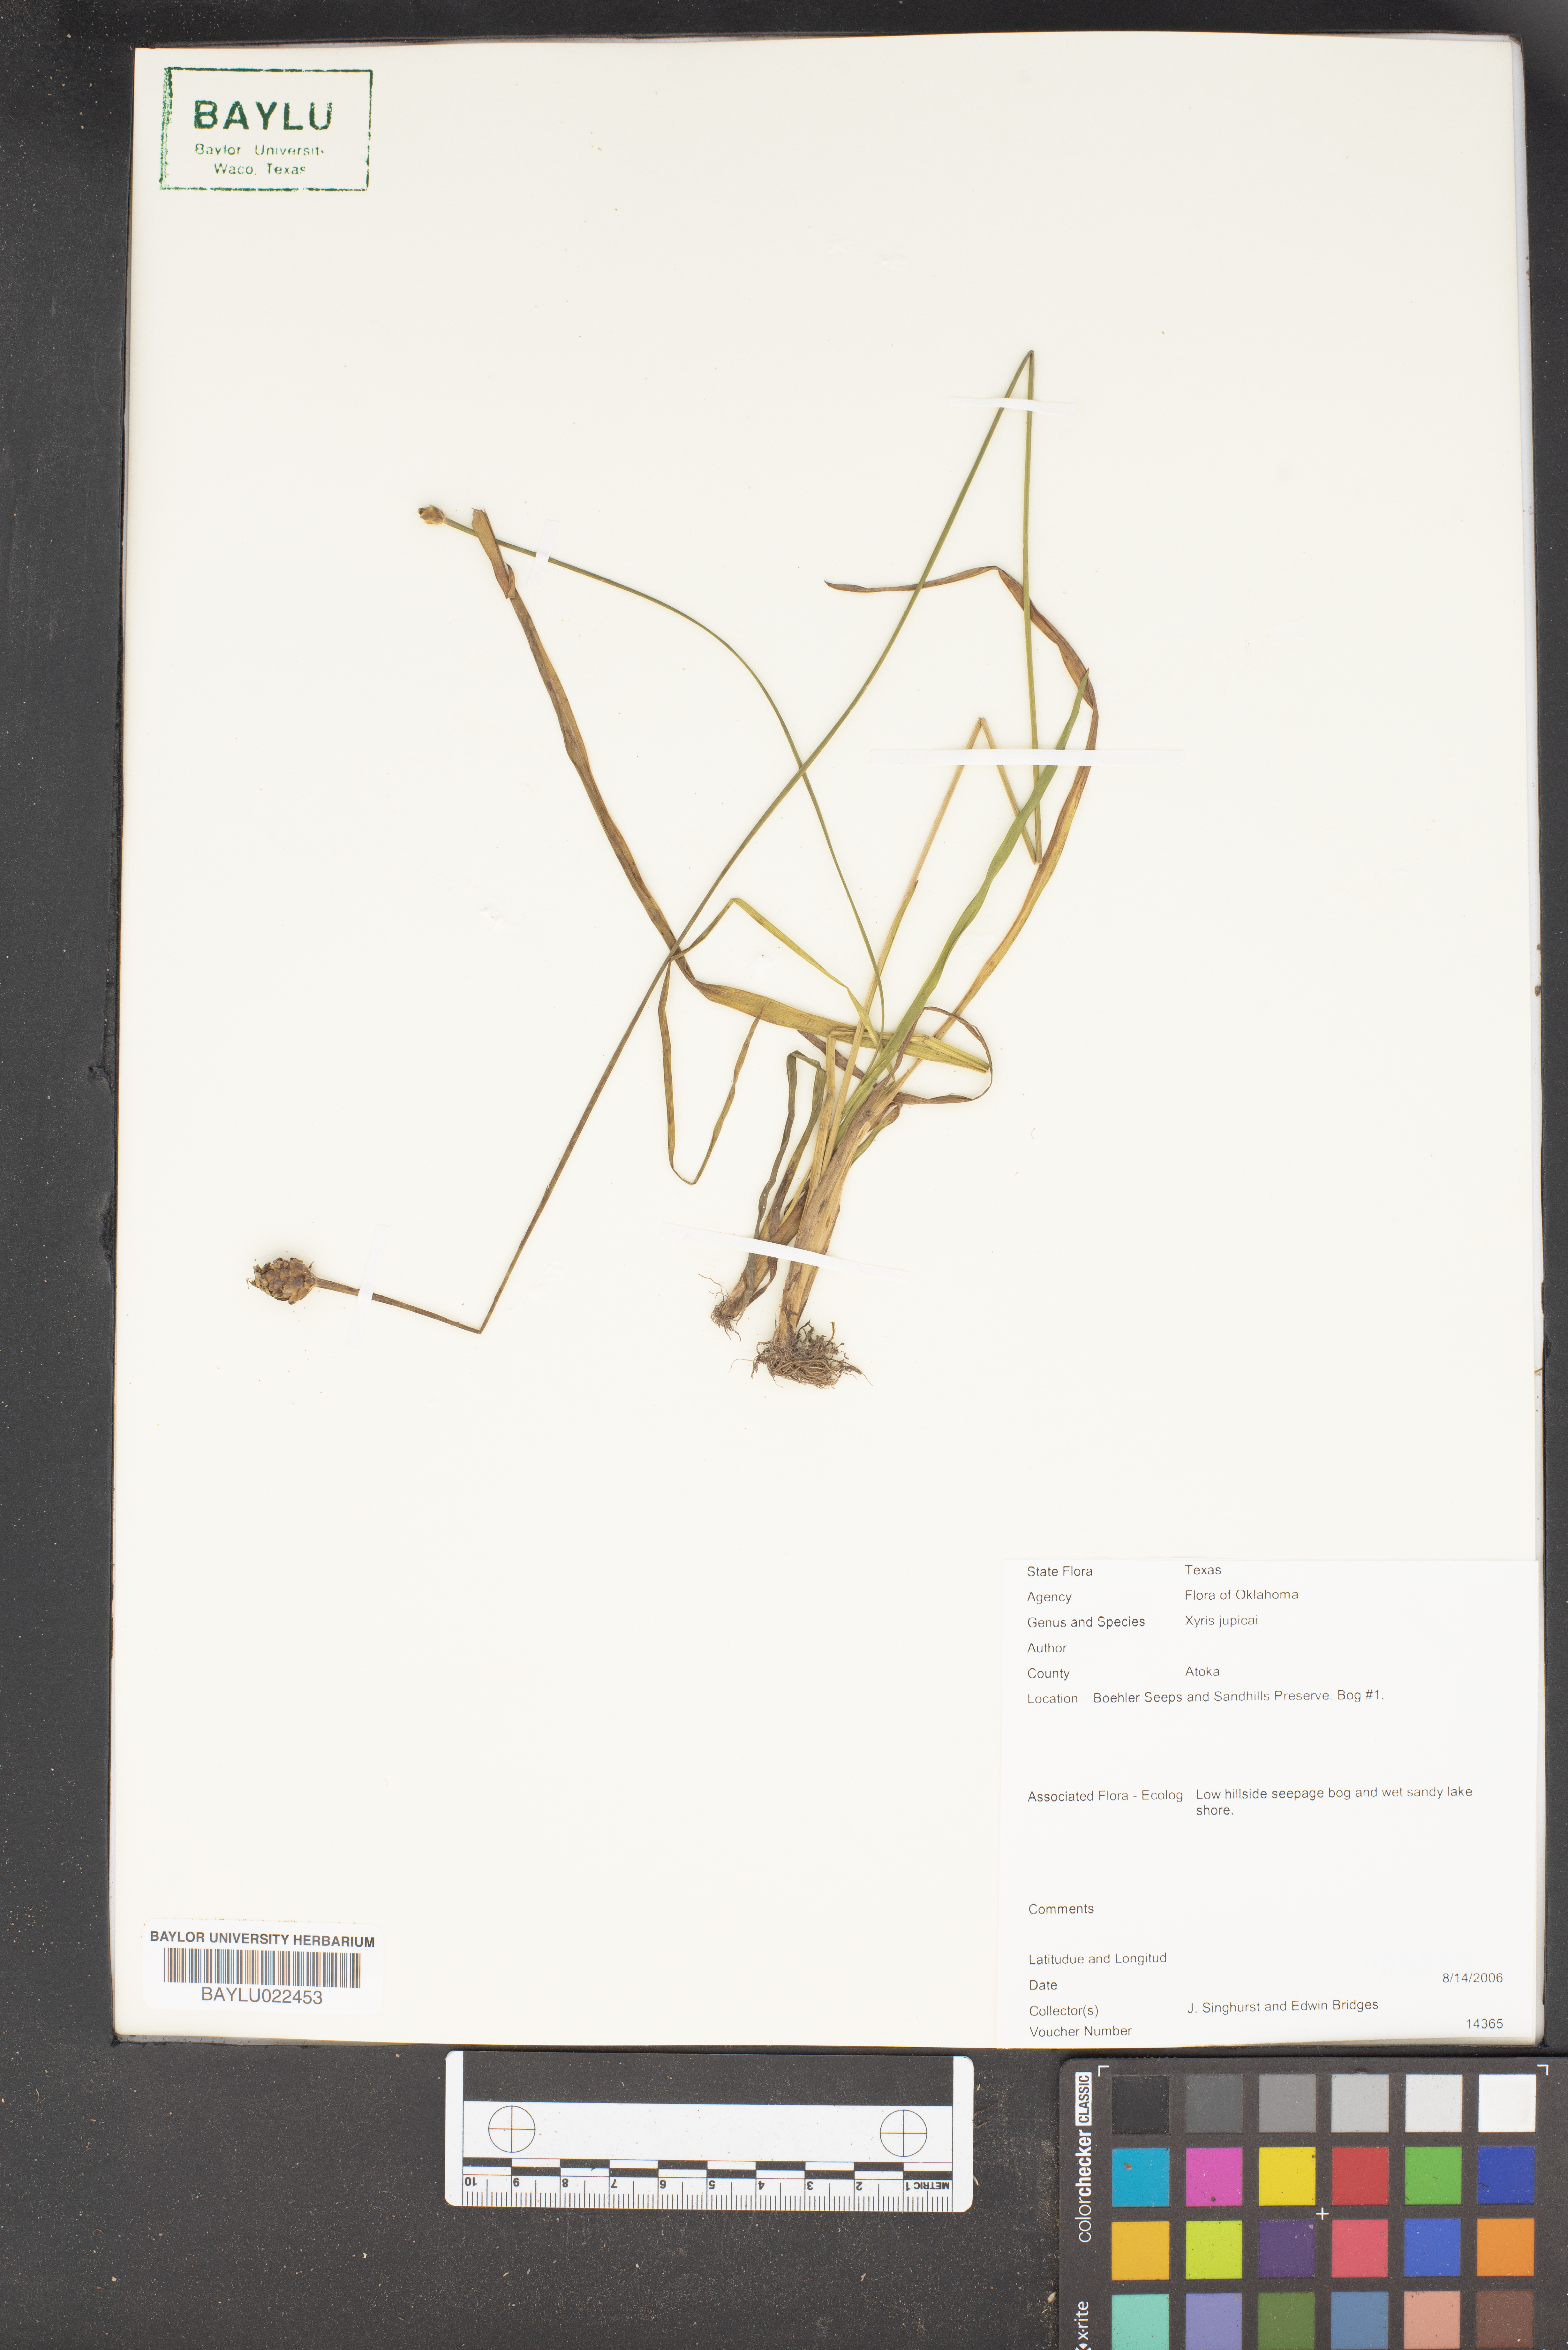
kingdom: Plantae
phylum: Tracheophyta
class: Liliopsida
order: Poales
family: Xyridaceae
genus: Xyris
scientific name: Xyris jupicai
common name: Richard's yelloweyed grass
